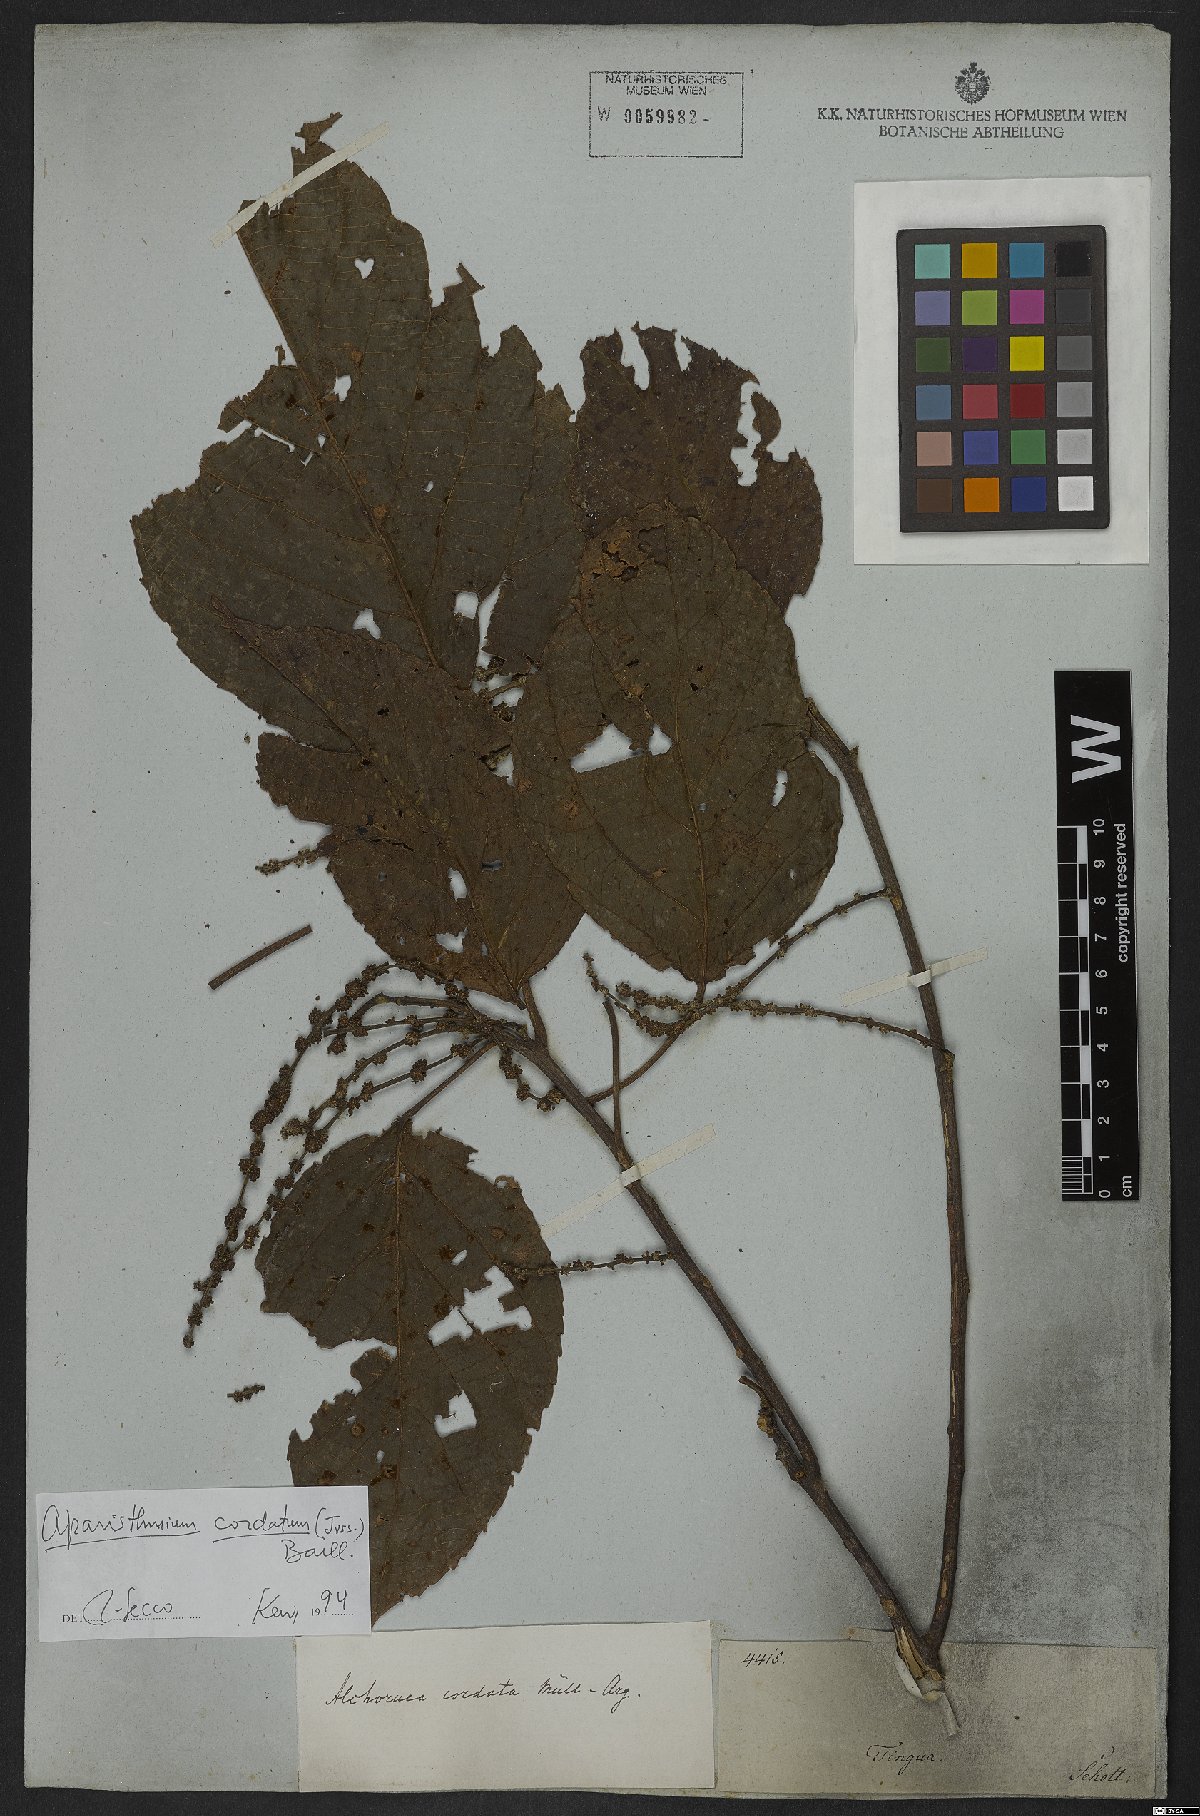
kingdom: Plantae
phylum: Tracheophyta
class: Magnoliopsida
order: Malpighiales
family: Euphorbiaceae
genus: Aparisthmium
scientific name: Aparisthmium cordatum
